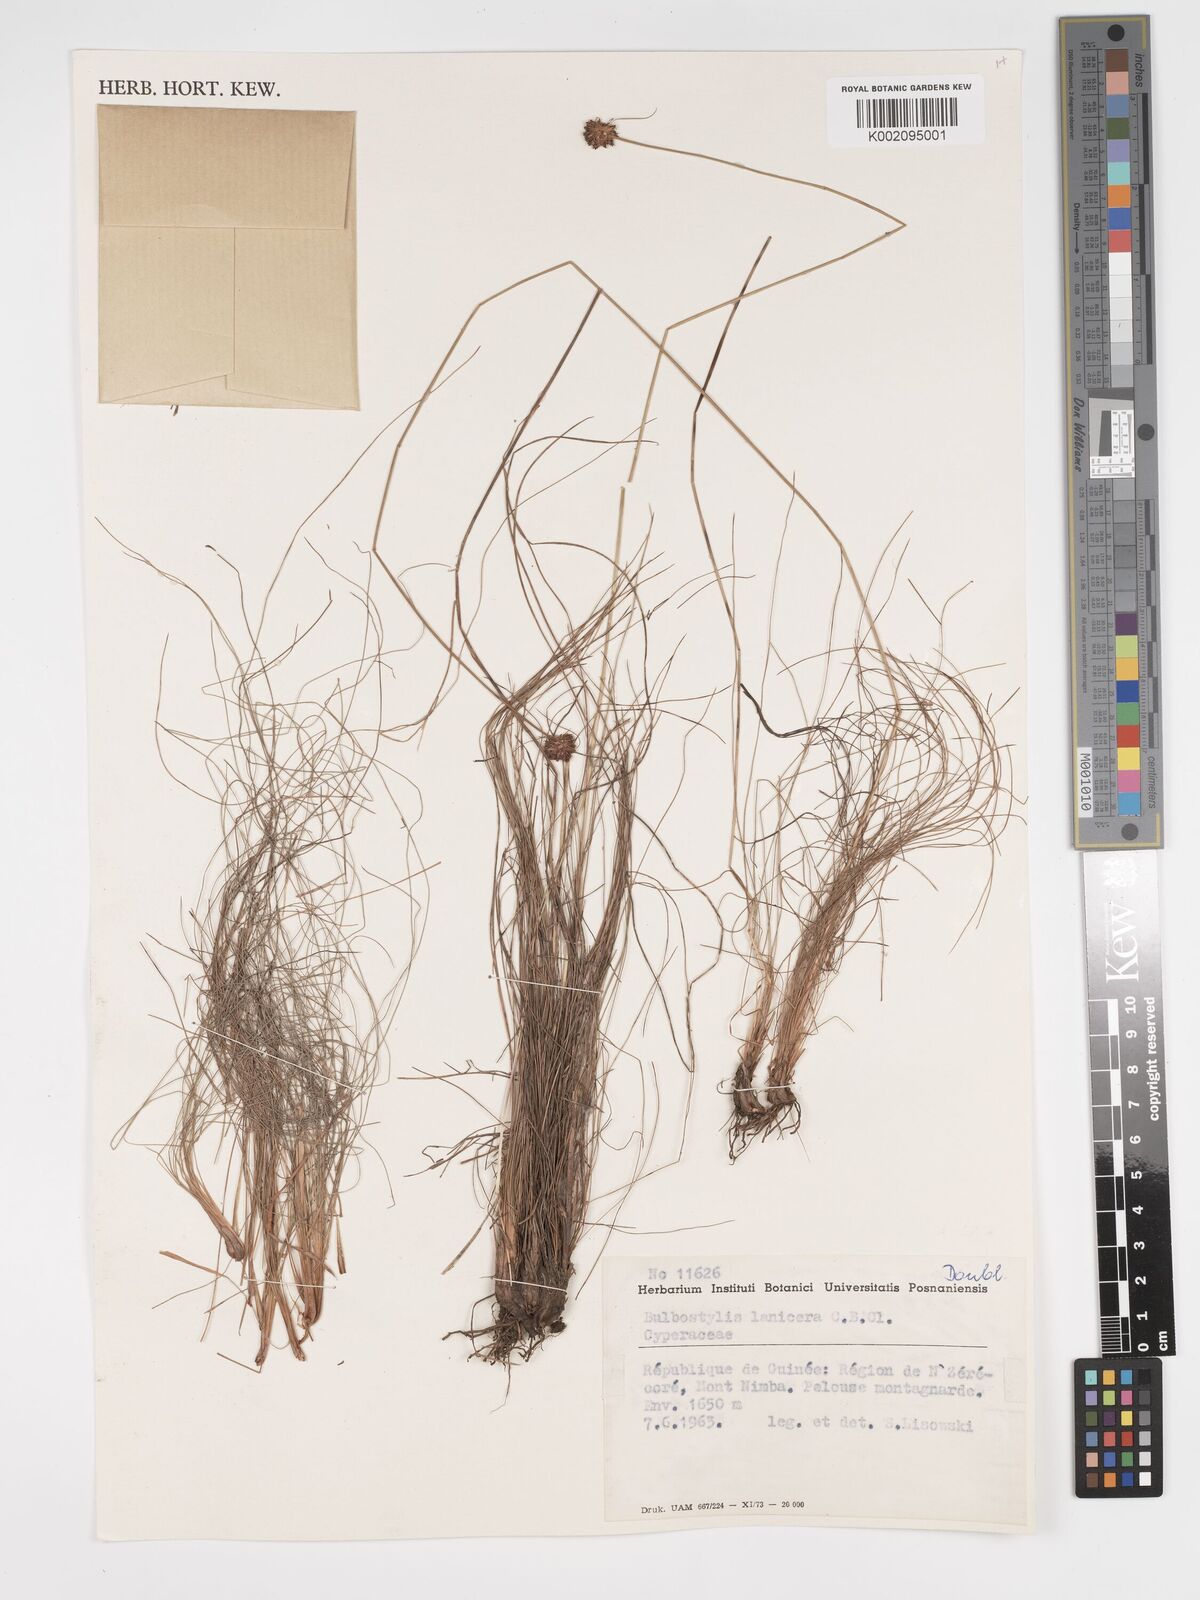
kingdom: Plantae
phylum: Tracheophyta
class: Liliopsida
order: Poales
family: Cyperaceae
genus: Bulbostylis
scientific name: Bulbostylis laniceps
